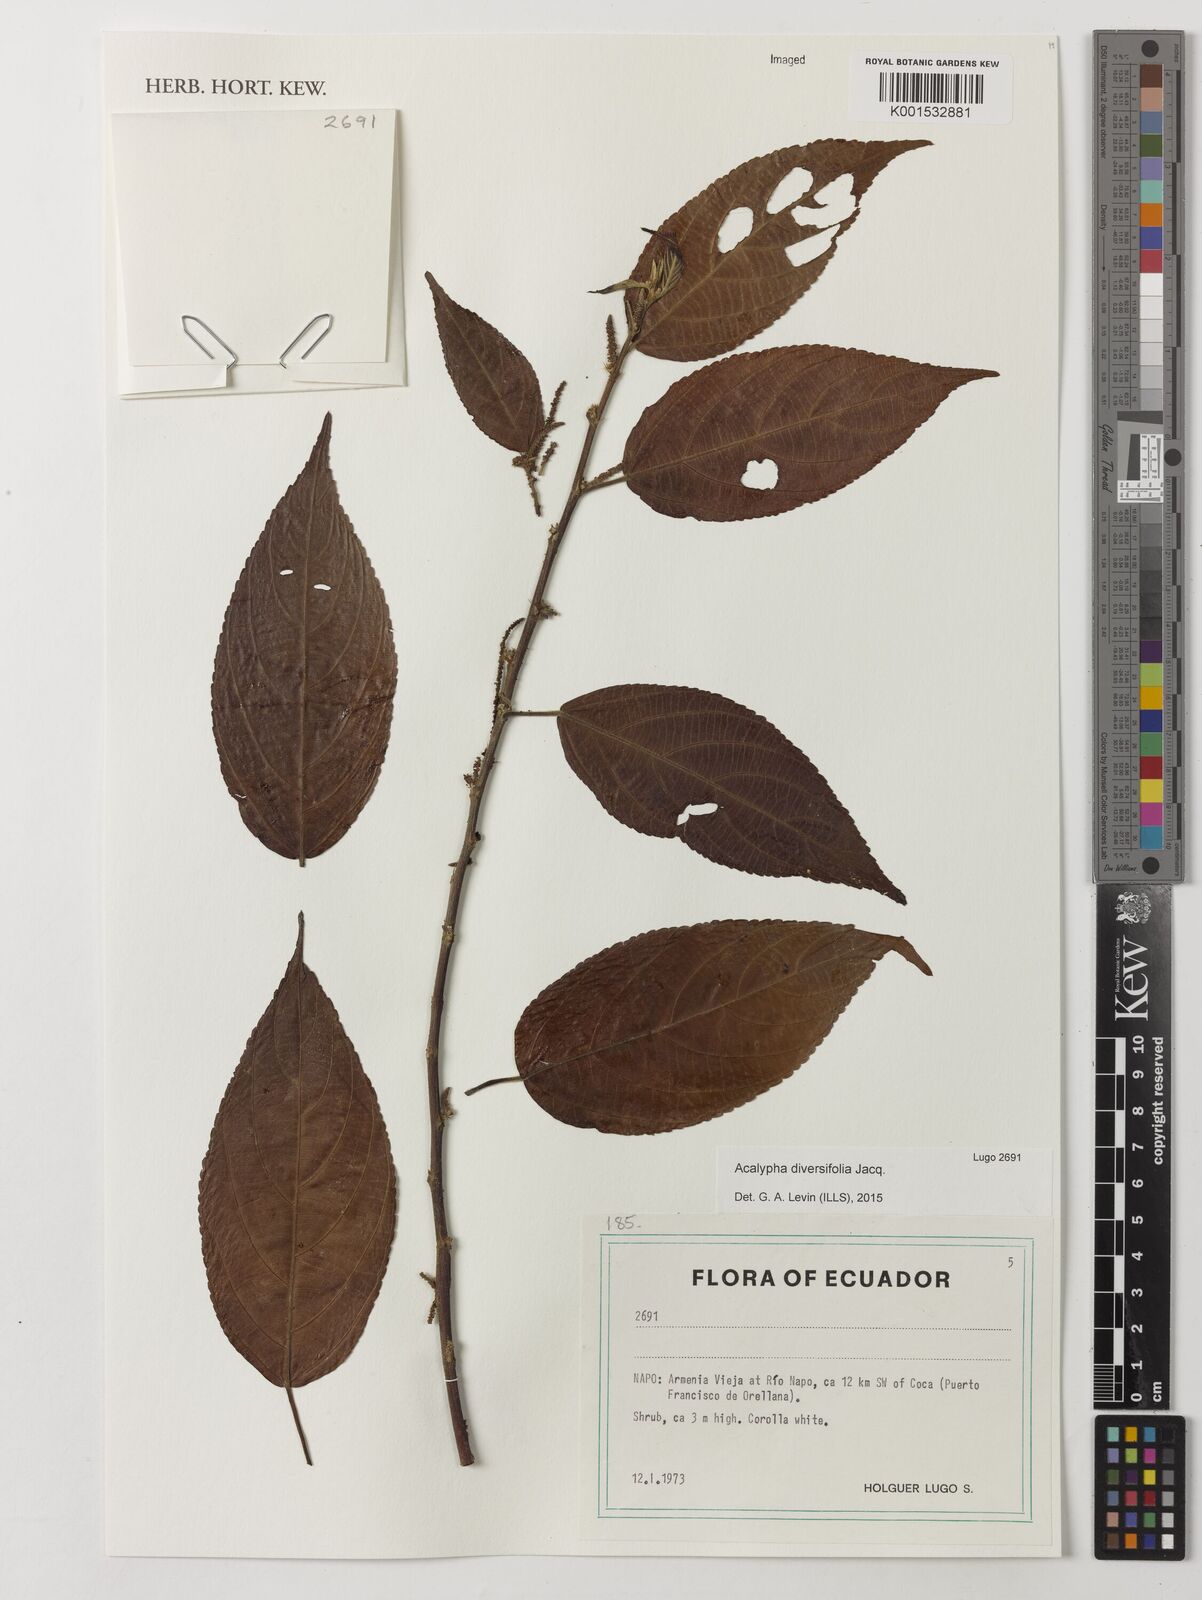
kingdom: Plantae
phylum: Tracheophyta
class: Magnoliopsida
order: Malpighiales
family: Euphorbiaceae
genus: Acalypha
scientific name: Acalypha diversifolia
